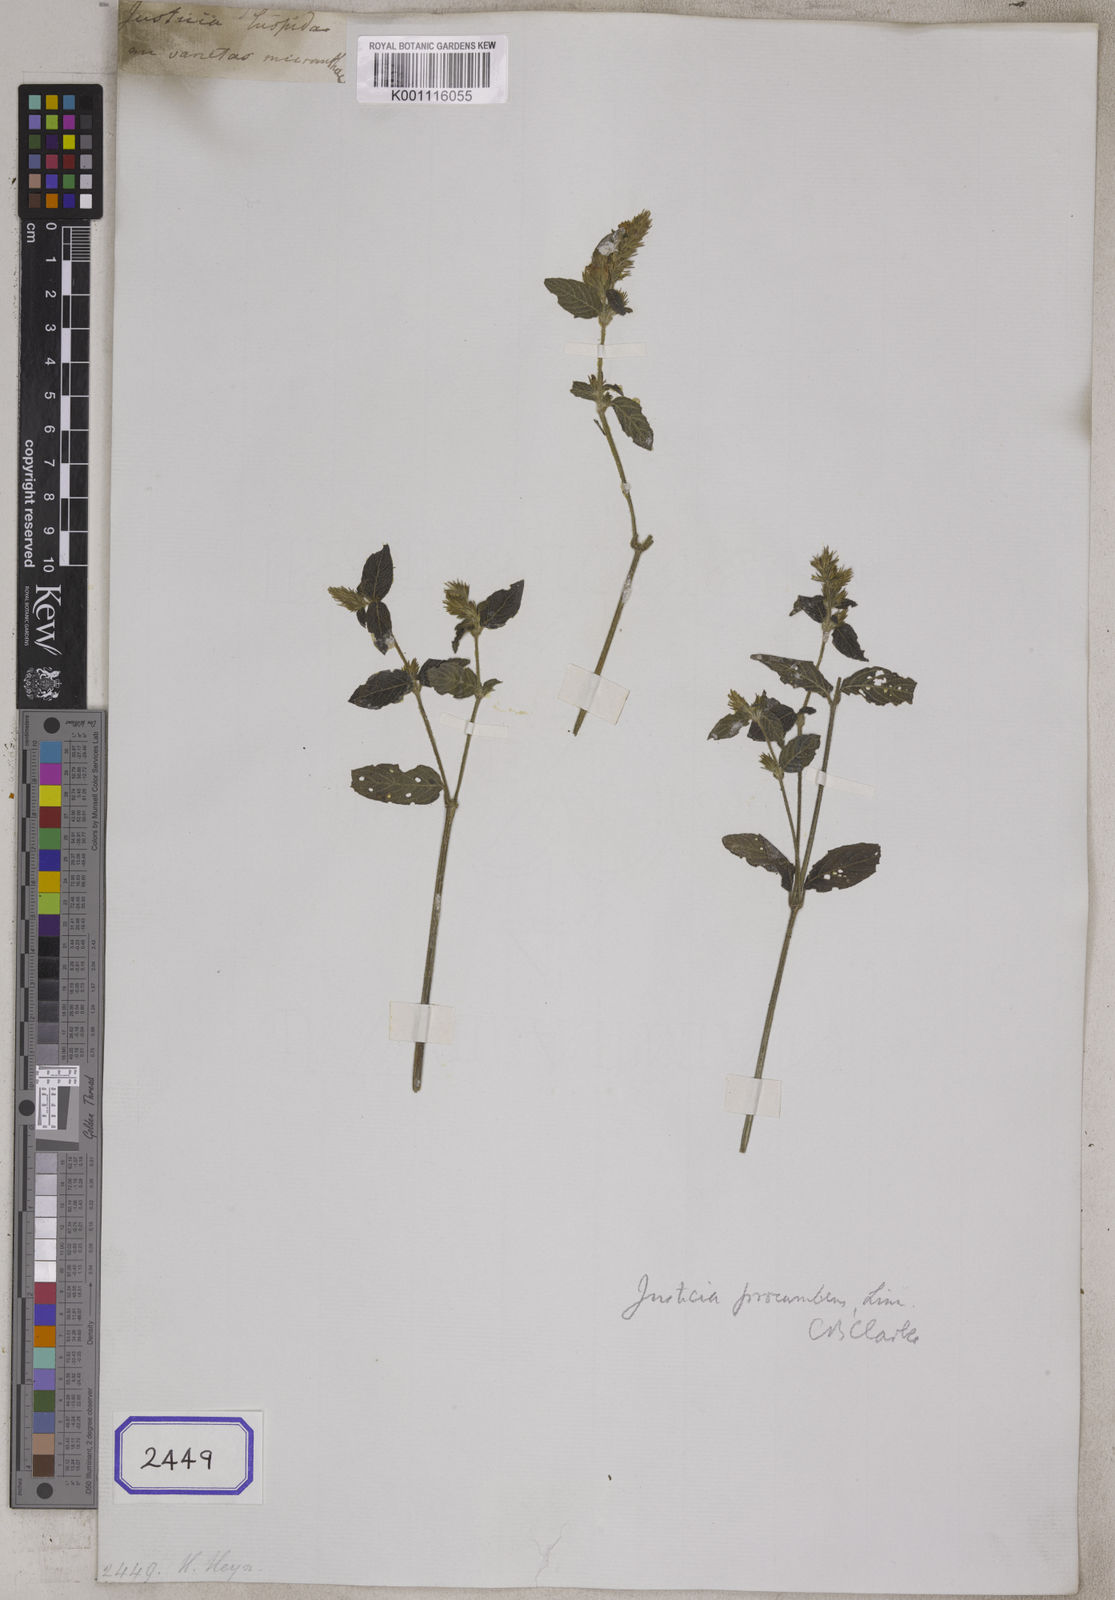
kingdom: Plantae
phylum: Tracheophyta
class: Magnoliopsida
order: Lamiales
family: Acanthaceae
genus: Justicia
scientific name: Justicia
